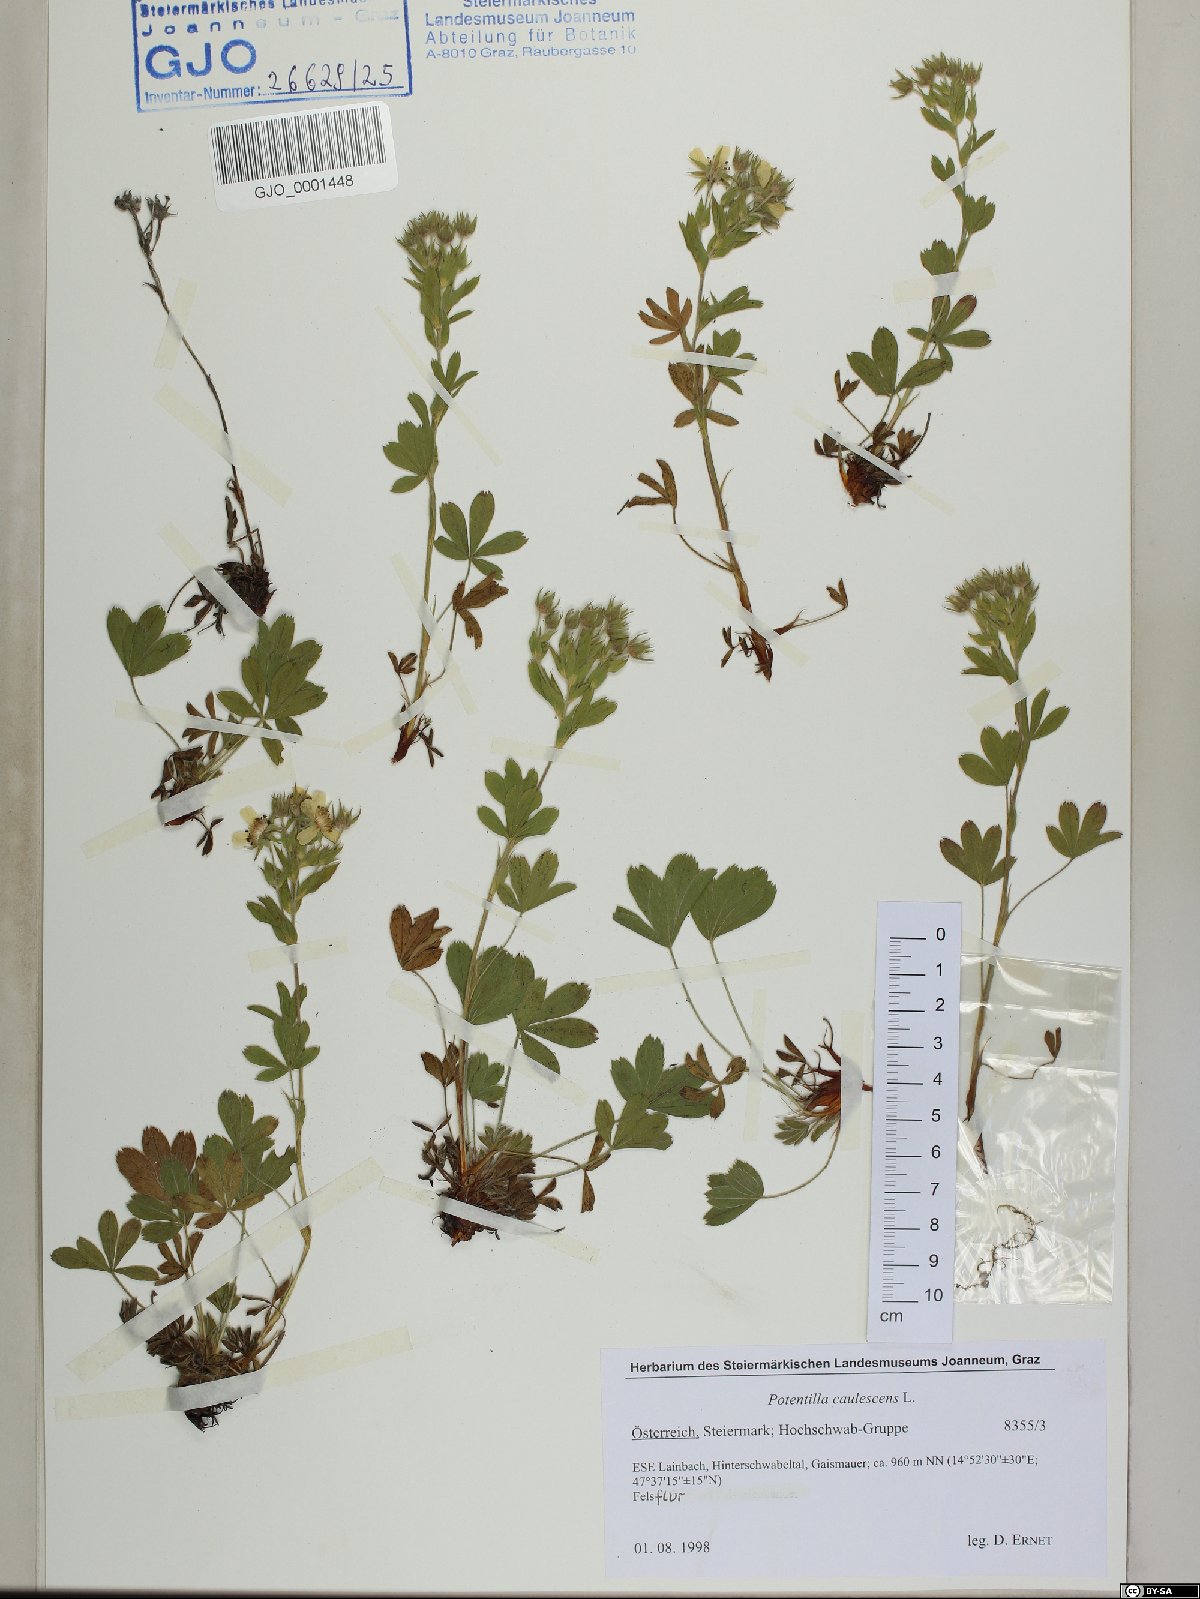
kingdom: Plantae
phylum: Tracheophyta
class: Magnoliopsida
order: Rosales
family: Rosaceae
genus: Potentilla
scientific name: Potentilla caulescens
